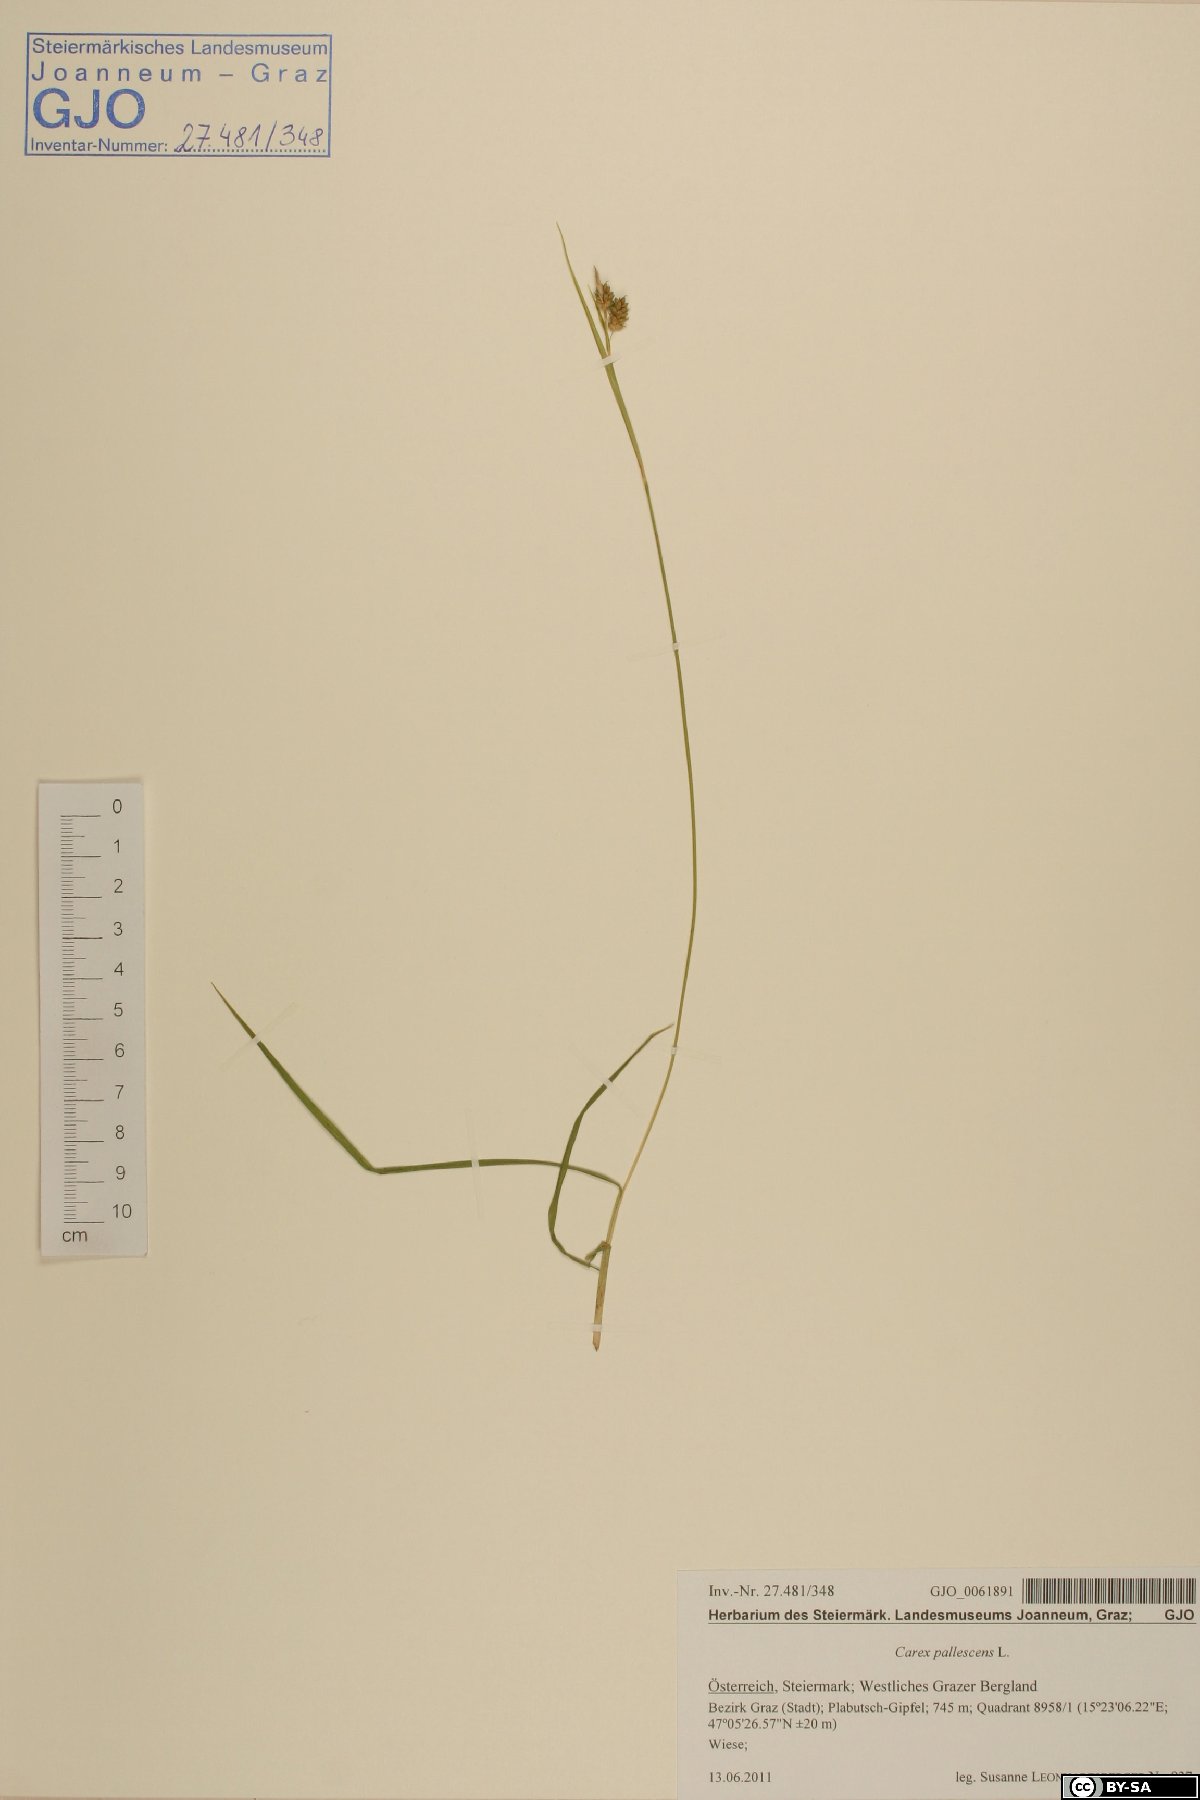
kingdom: Plantae
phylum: Tracheophyta
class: Liliopsida
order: Poales
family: Cyperaceae
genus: Carex
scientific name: Carex pallescens
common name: Pale sedge
